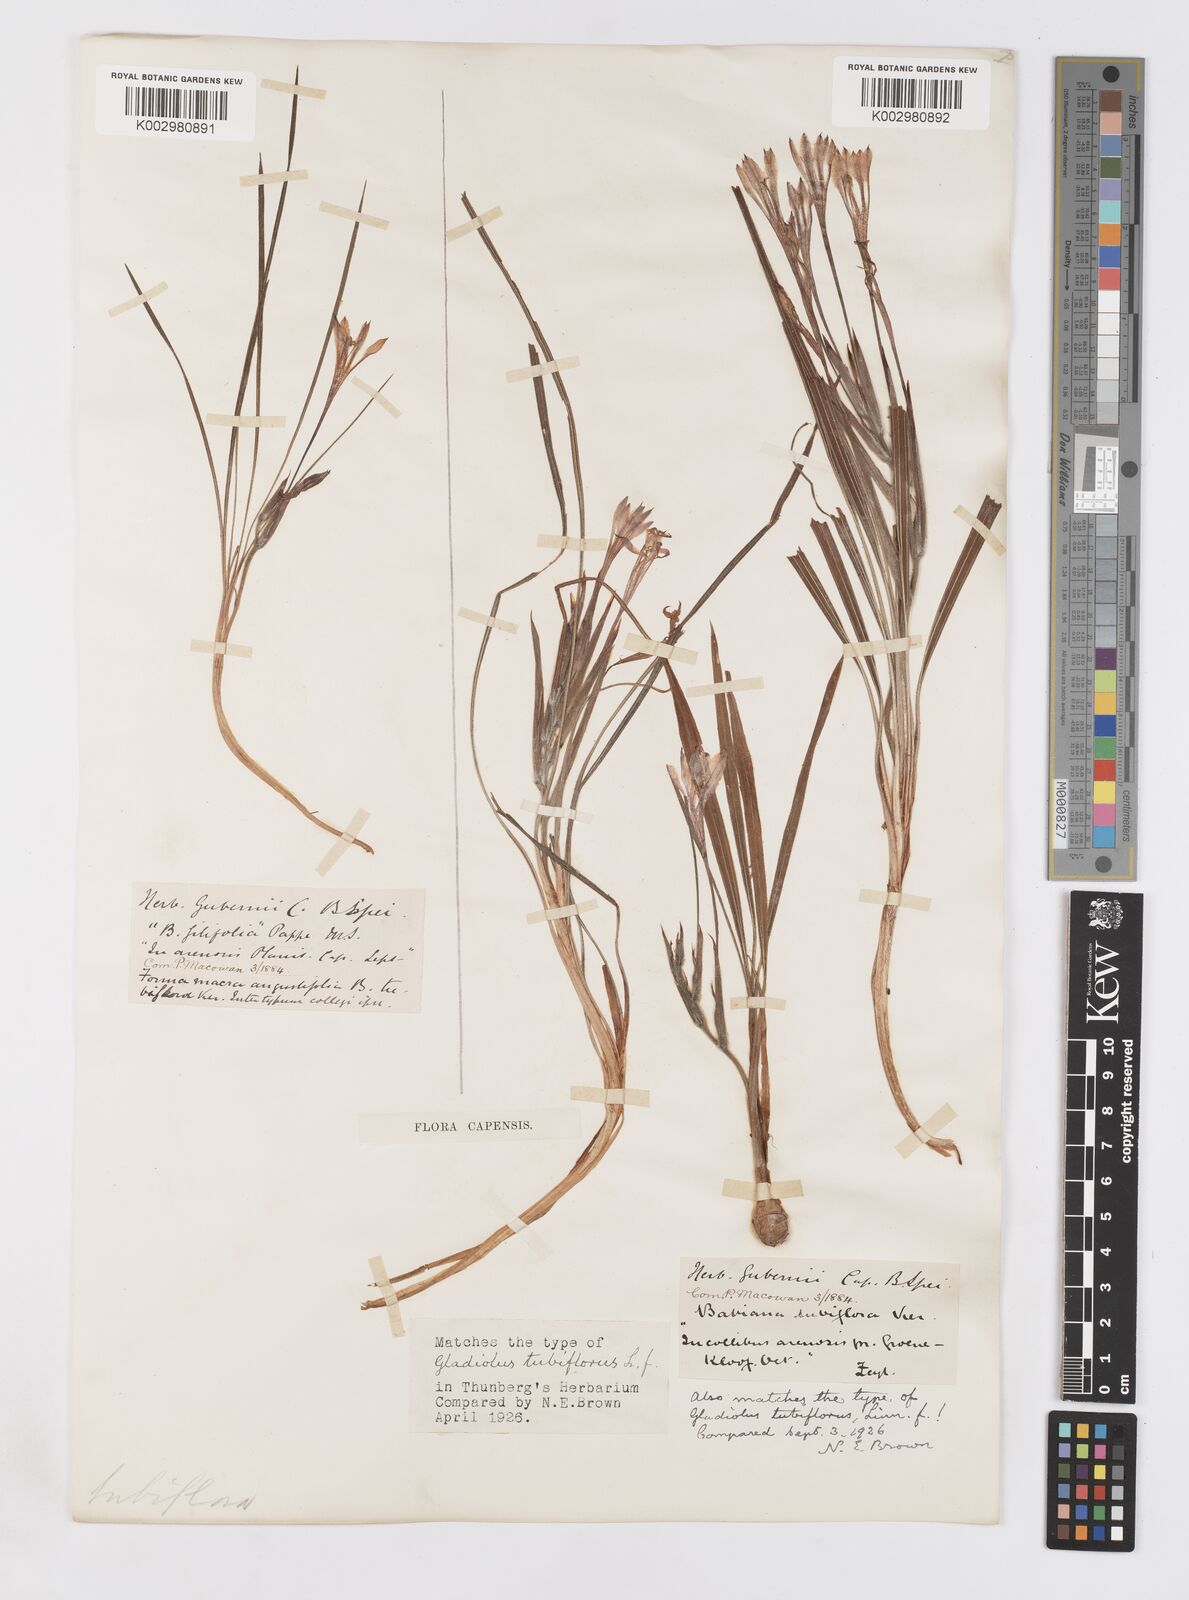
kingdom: Plantae
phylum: Tracheophyta
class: Liliopsida
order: Asparagales
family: Iridaceae
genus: Babiana
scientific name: Babiana tubiflora
